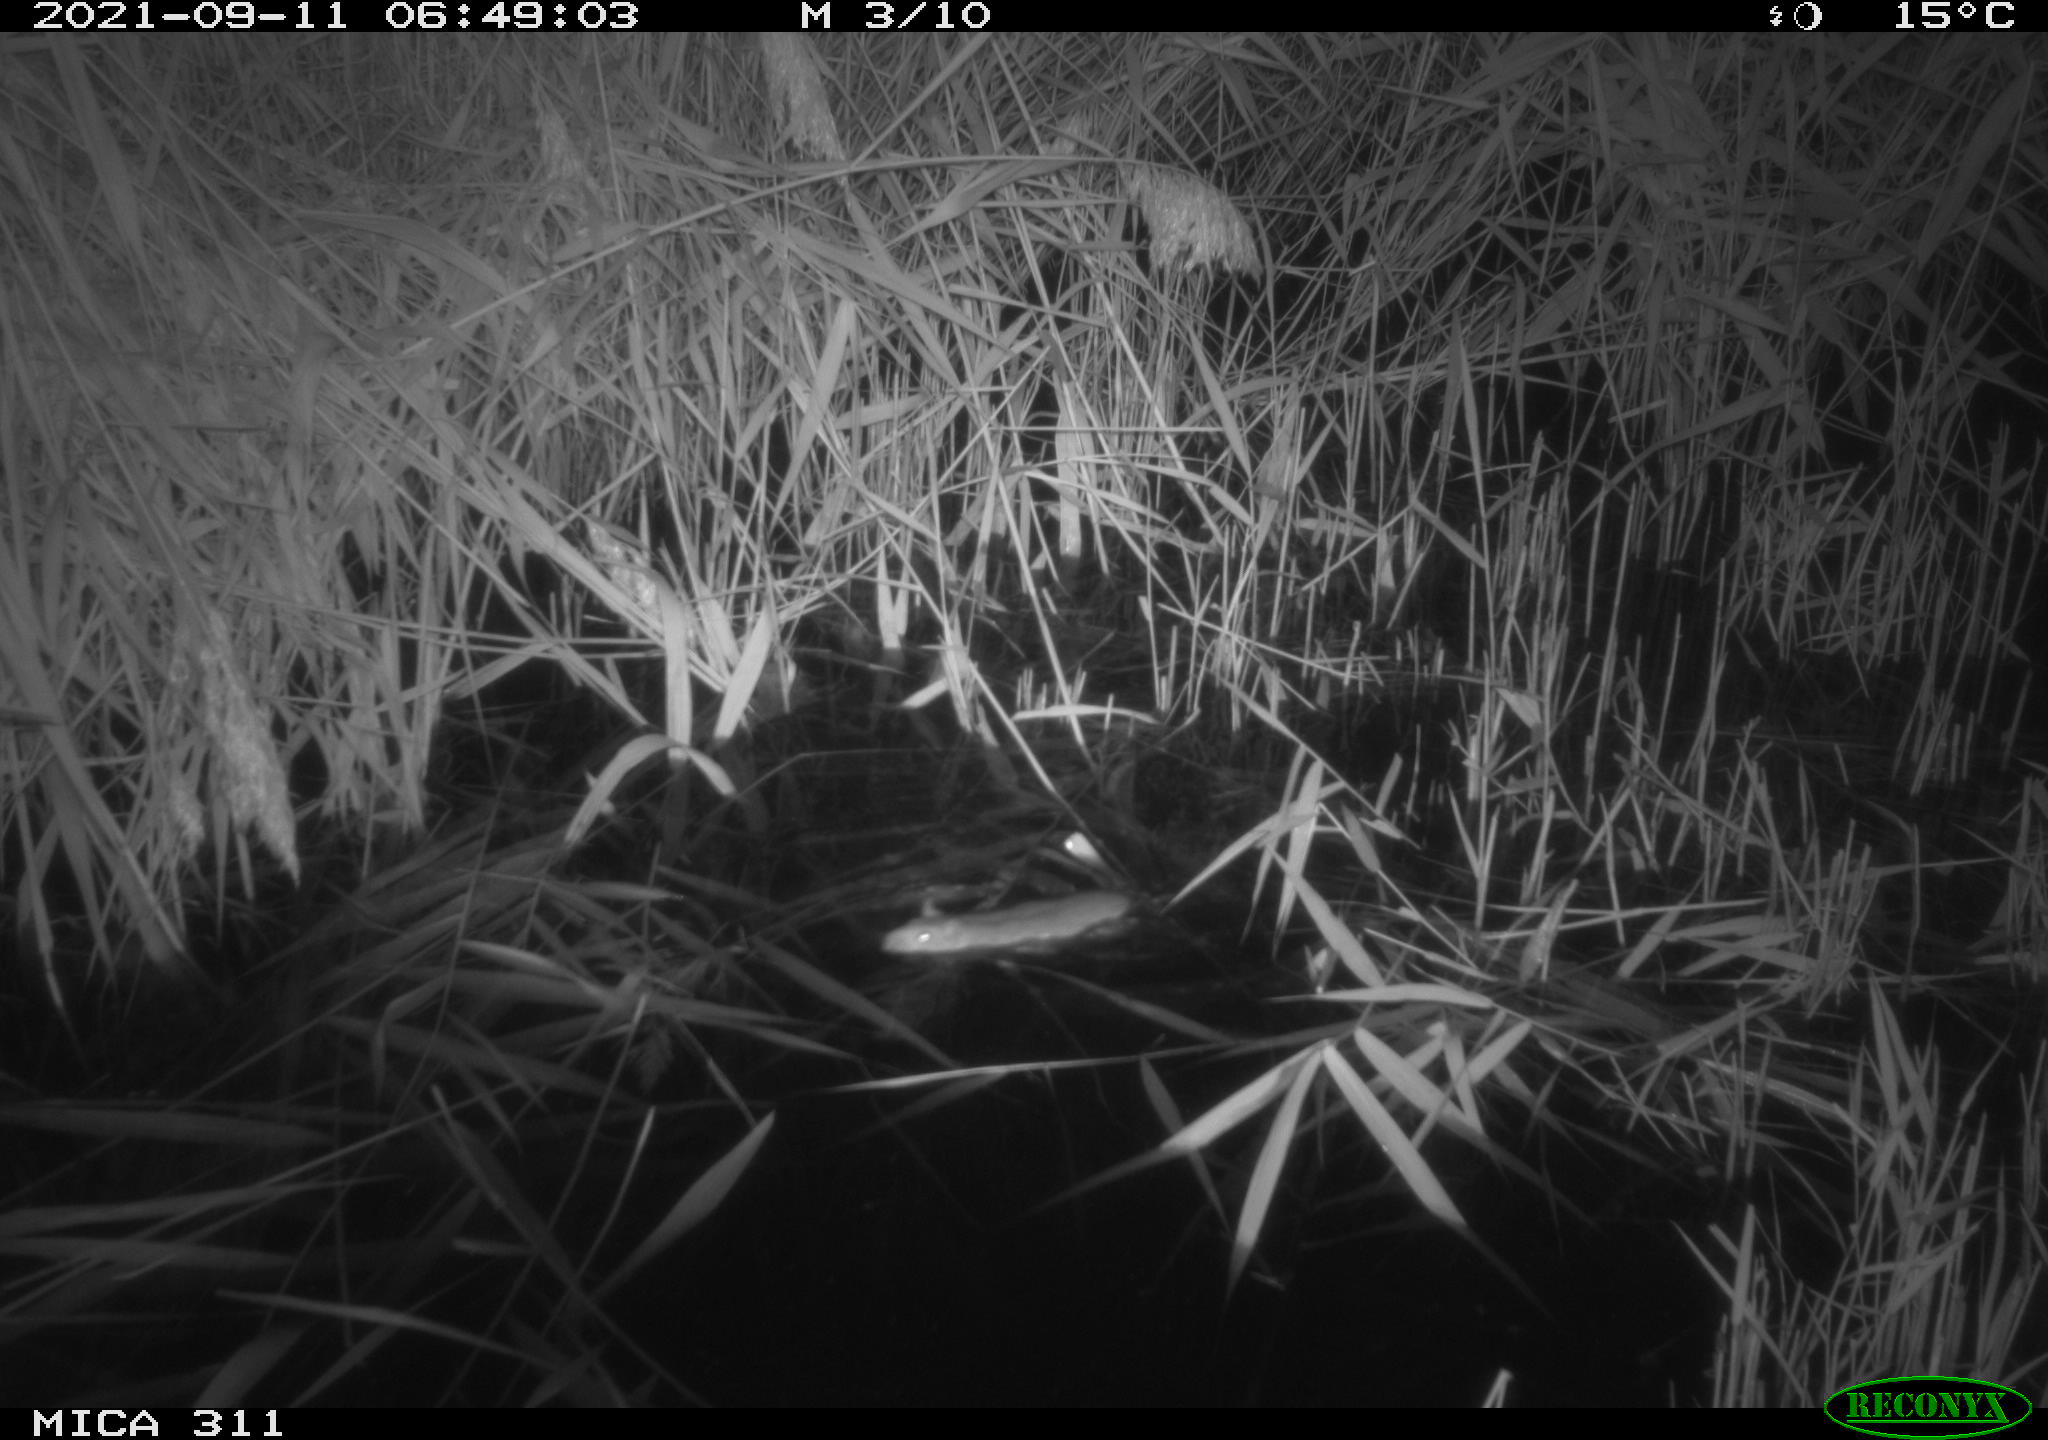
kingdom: Animalia
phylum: Chordata
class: Mammalia
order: Rodentia
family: Muridae
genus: Rattus
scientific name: Rattus norvegicus
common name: Brown rat
